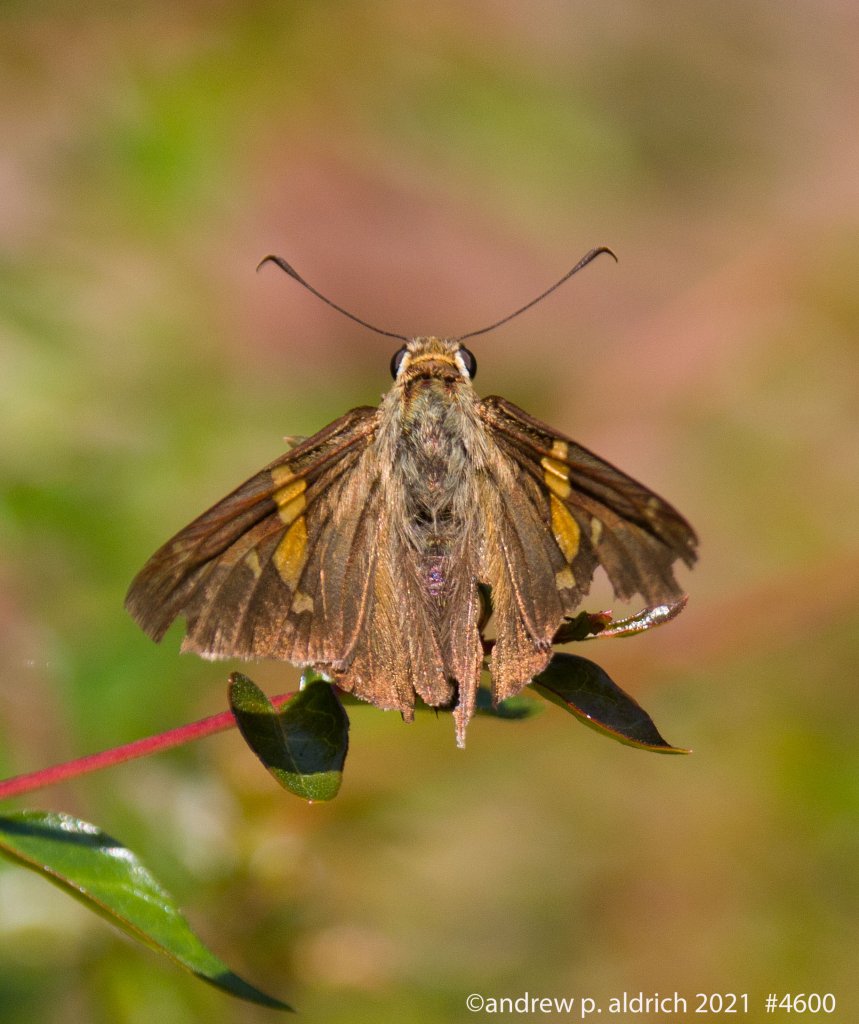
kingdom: Animalia
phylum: Arthropoda
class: Insecta
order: Lepidoptera
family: Hesperiidae
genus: Epargyreus
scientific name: Epargyreus clarus
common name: Silver-spotted Skipper
